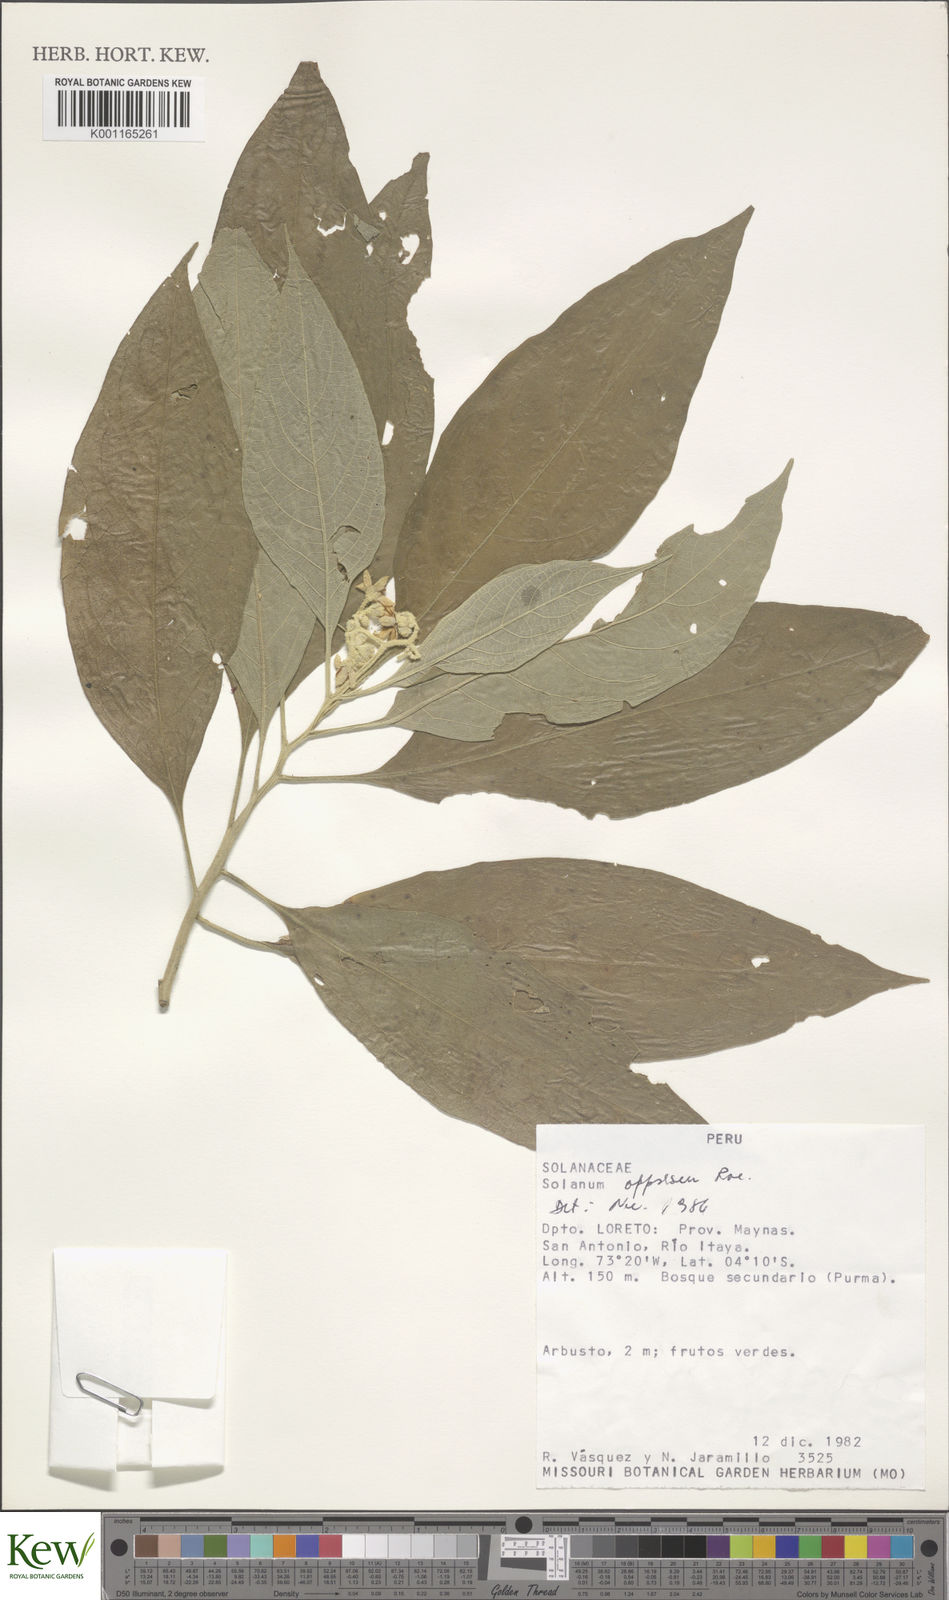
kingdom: Plantae
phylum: Tracheophyta
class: Magnoliopsida
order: Solanales
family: Solanaceae
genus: Solanum
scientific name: Solanum appressum
